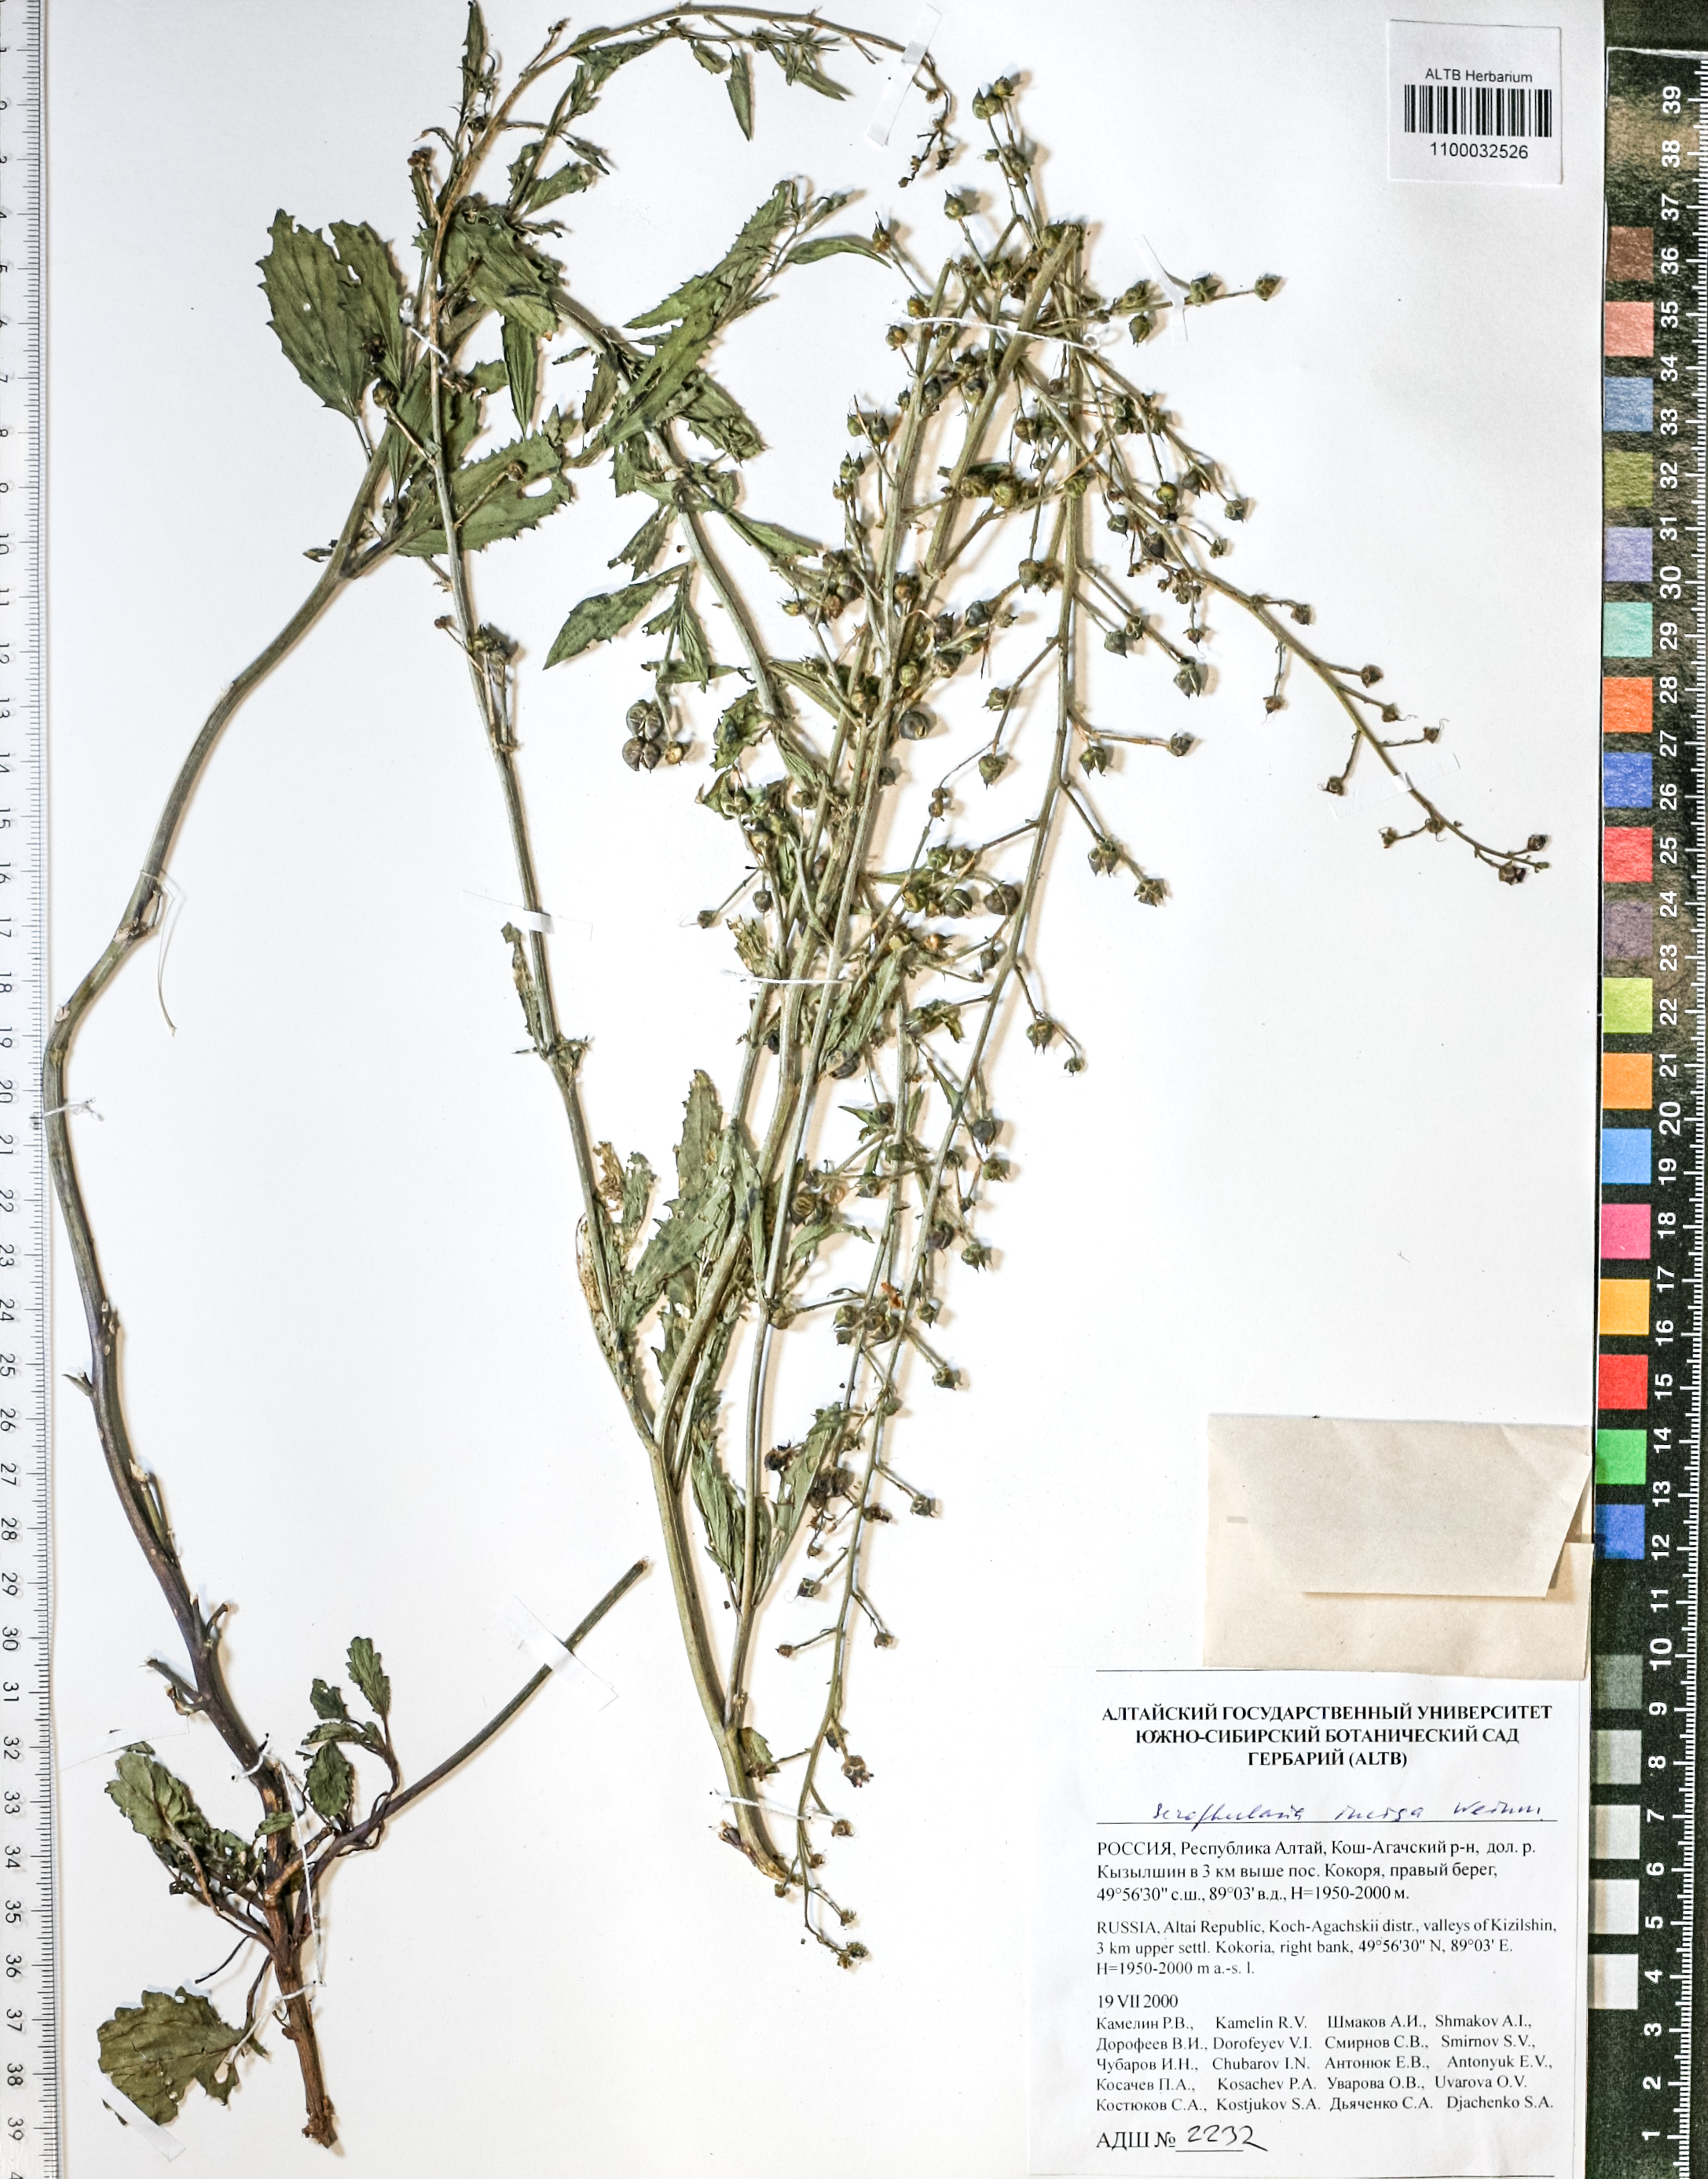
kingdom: Plantae
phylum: Tracheophyta
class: Magnoliopsida
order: Lamiales
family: Scrophulariaceae
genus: Scrophularia
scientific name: Scrophularia incisa
